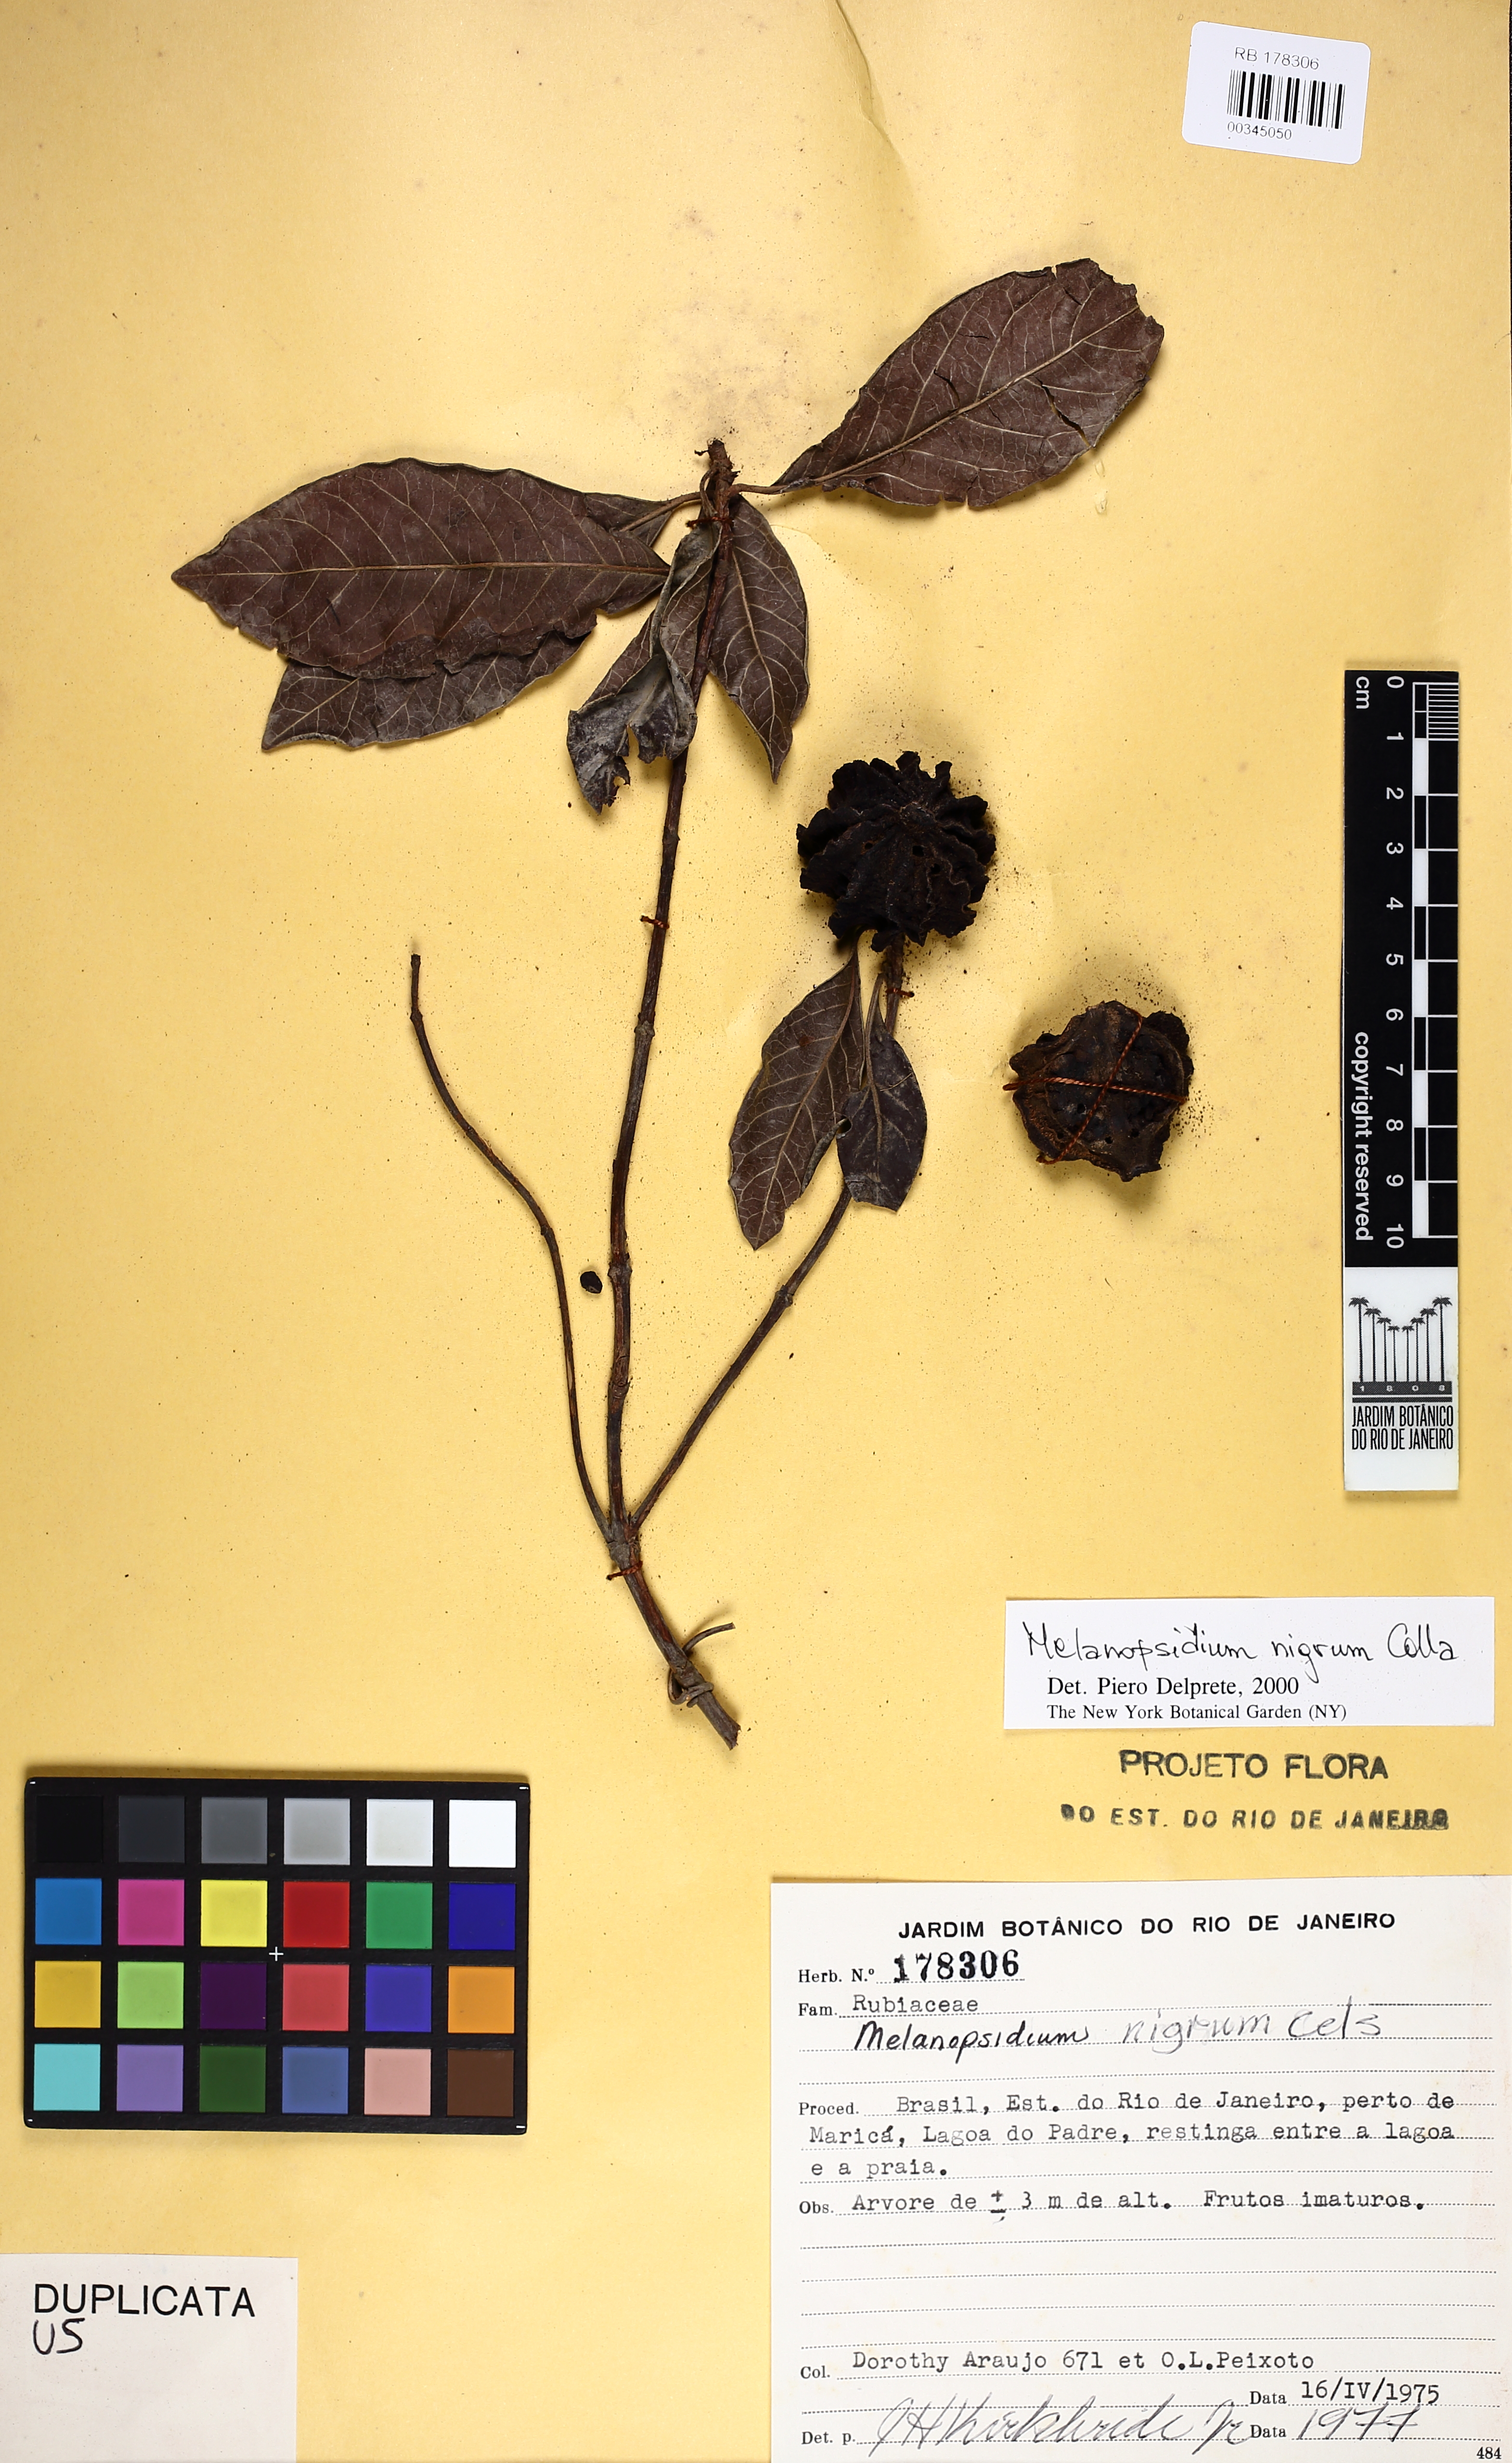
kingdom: Plantae
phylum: Tracheophyta
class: Magnoliopsida
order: Gentianales
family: Rubiaceae
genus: Melanopsidium
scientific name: Melanopsidium nigrum
